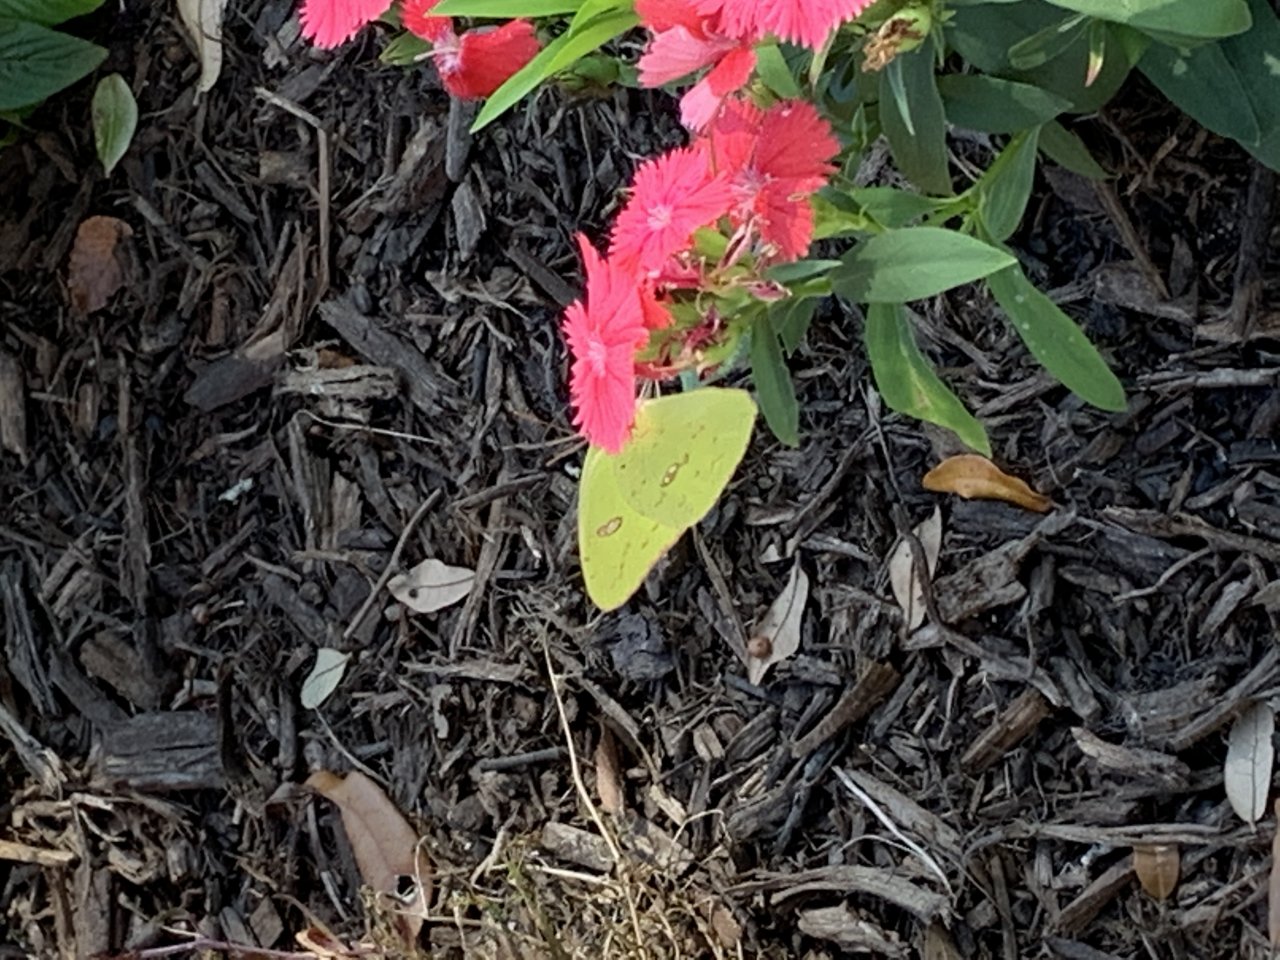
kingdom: Animalia
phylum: Arthropoda
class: Insecta
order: Lepidoptera
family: Pieridae
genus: Phoebis
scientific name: Phoebis sennae
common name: Cloudless Sulphur
